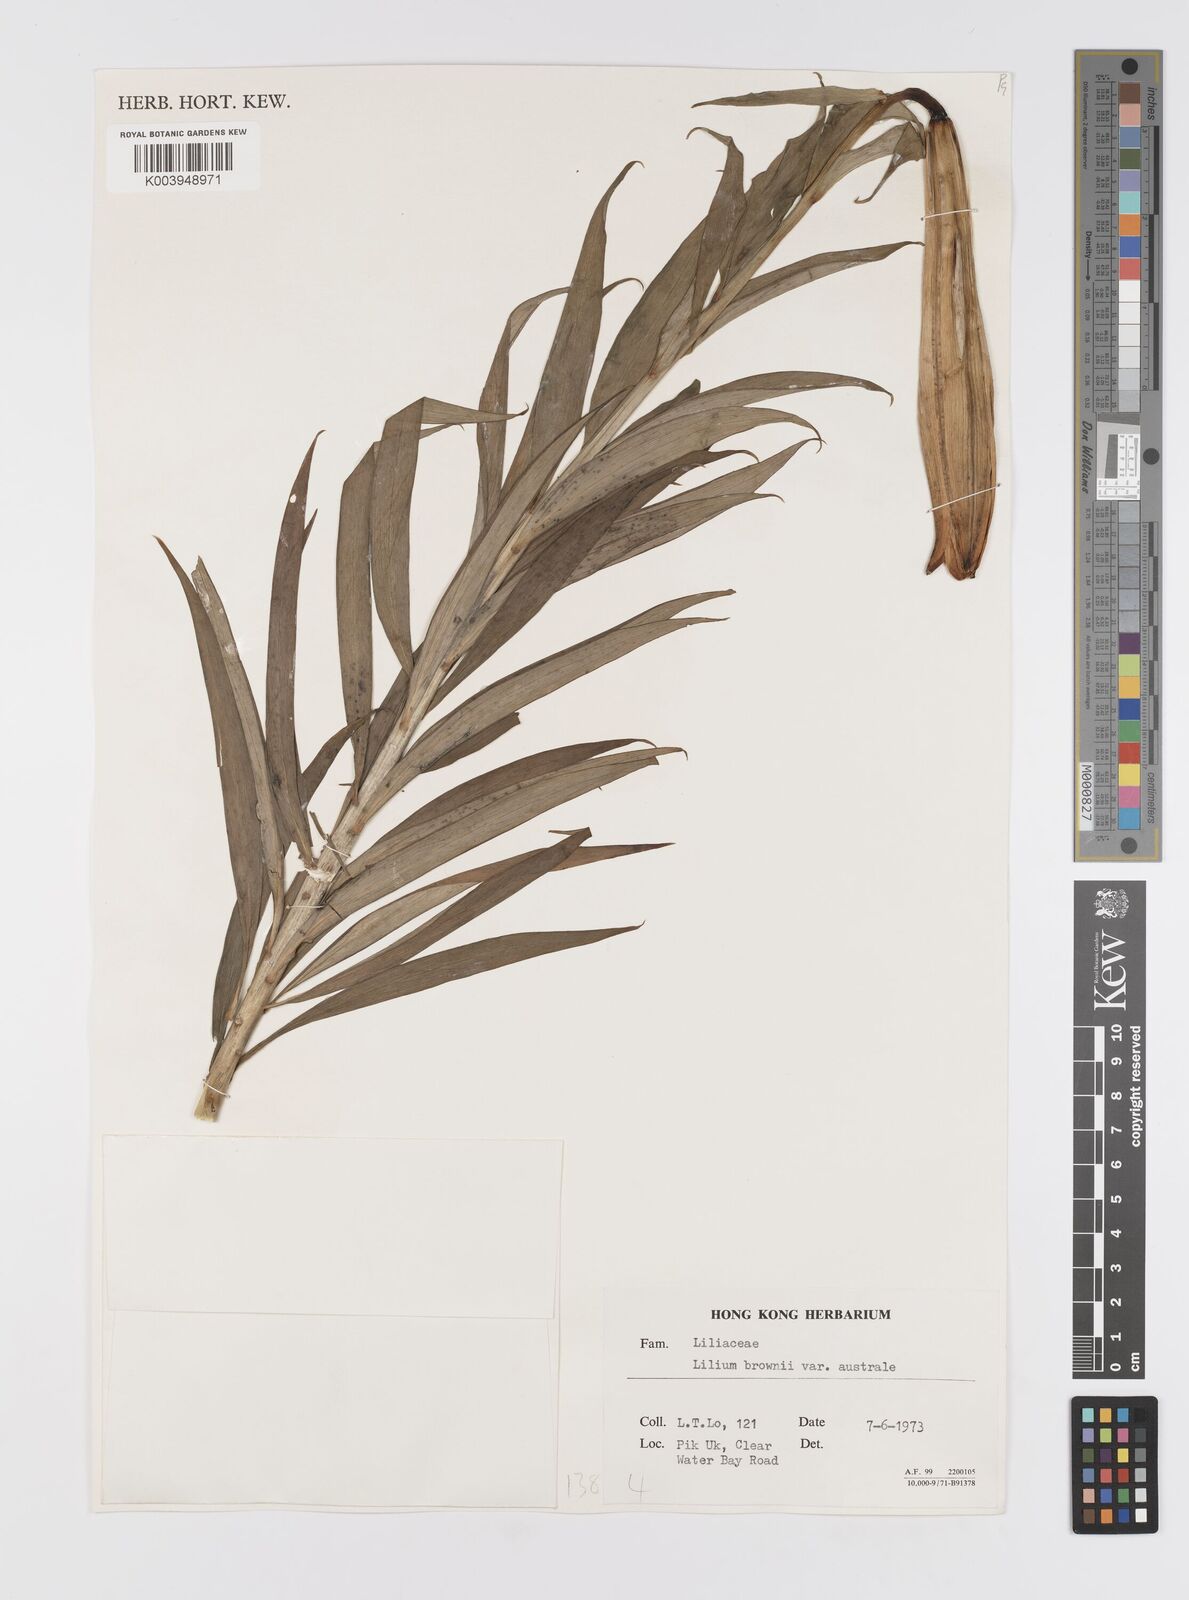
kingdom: Plantae
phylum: Tracheophyta
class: Liliopsida
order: Liliales
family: Liliaceae
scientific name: Liliaceae
